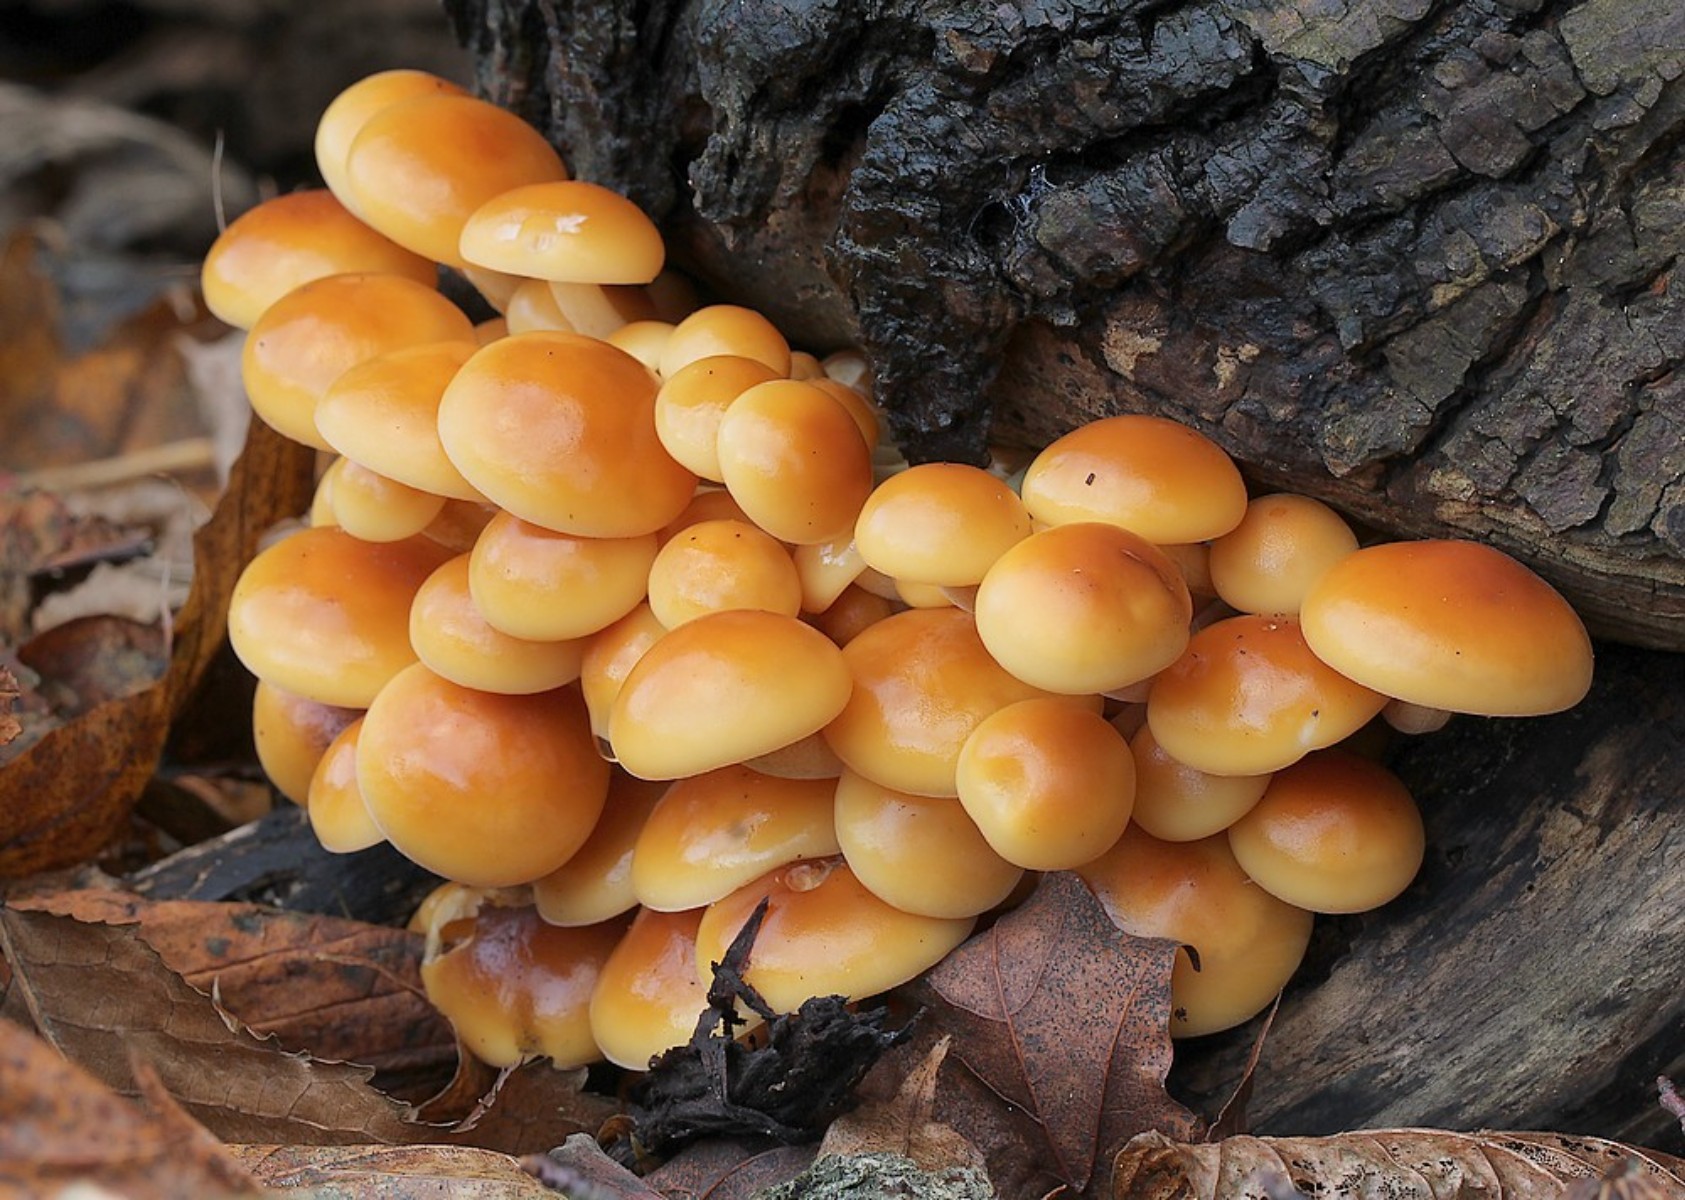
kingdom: Fungi
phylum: Basidiomycota
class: Agaricomycetes
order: Agaricales
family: Physalacriaceae
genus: Flammulina
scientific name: Flammulina velutipes
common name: gul fløjlsfod
